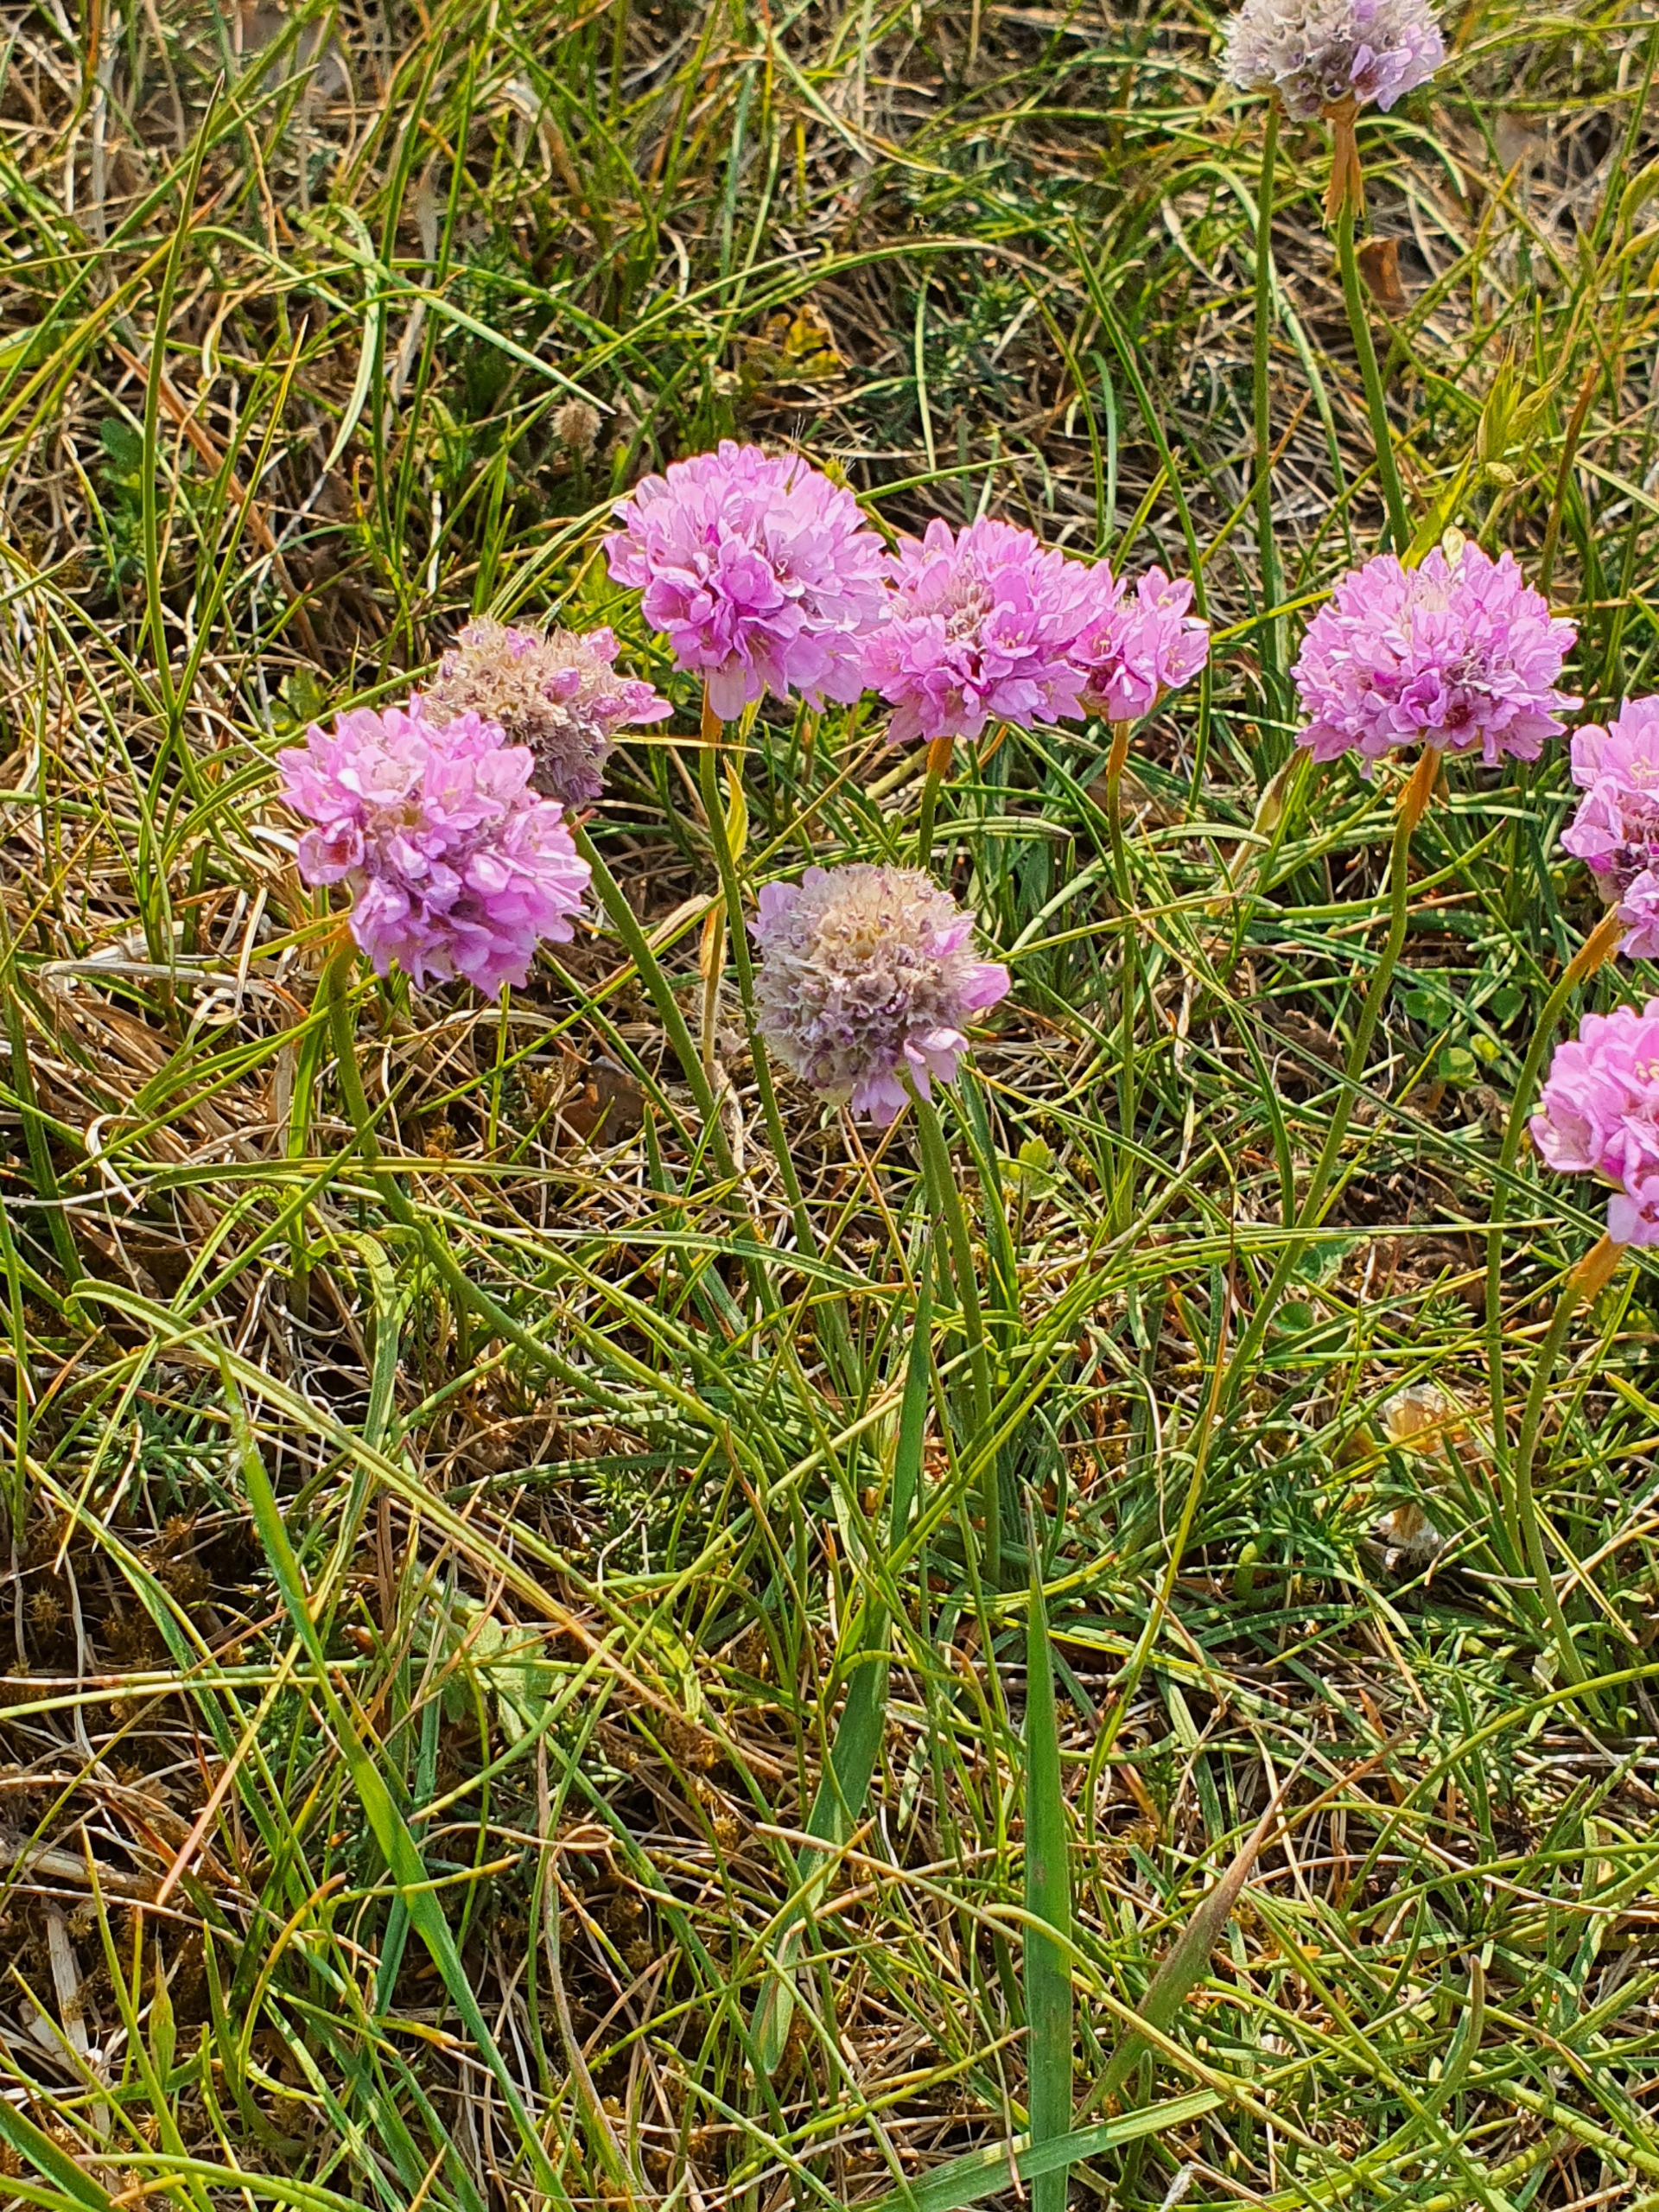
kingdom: Plantae
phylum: Tracheophyta
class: Magnoliopsida
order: Caryophyllales
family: Plumbaginaceae
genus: Armeria
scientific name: Armeria maritima
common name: Engelskgræs
